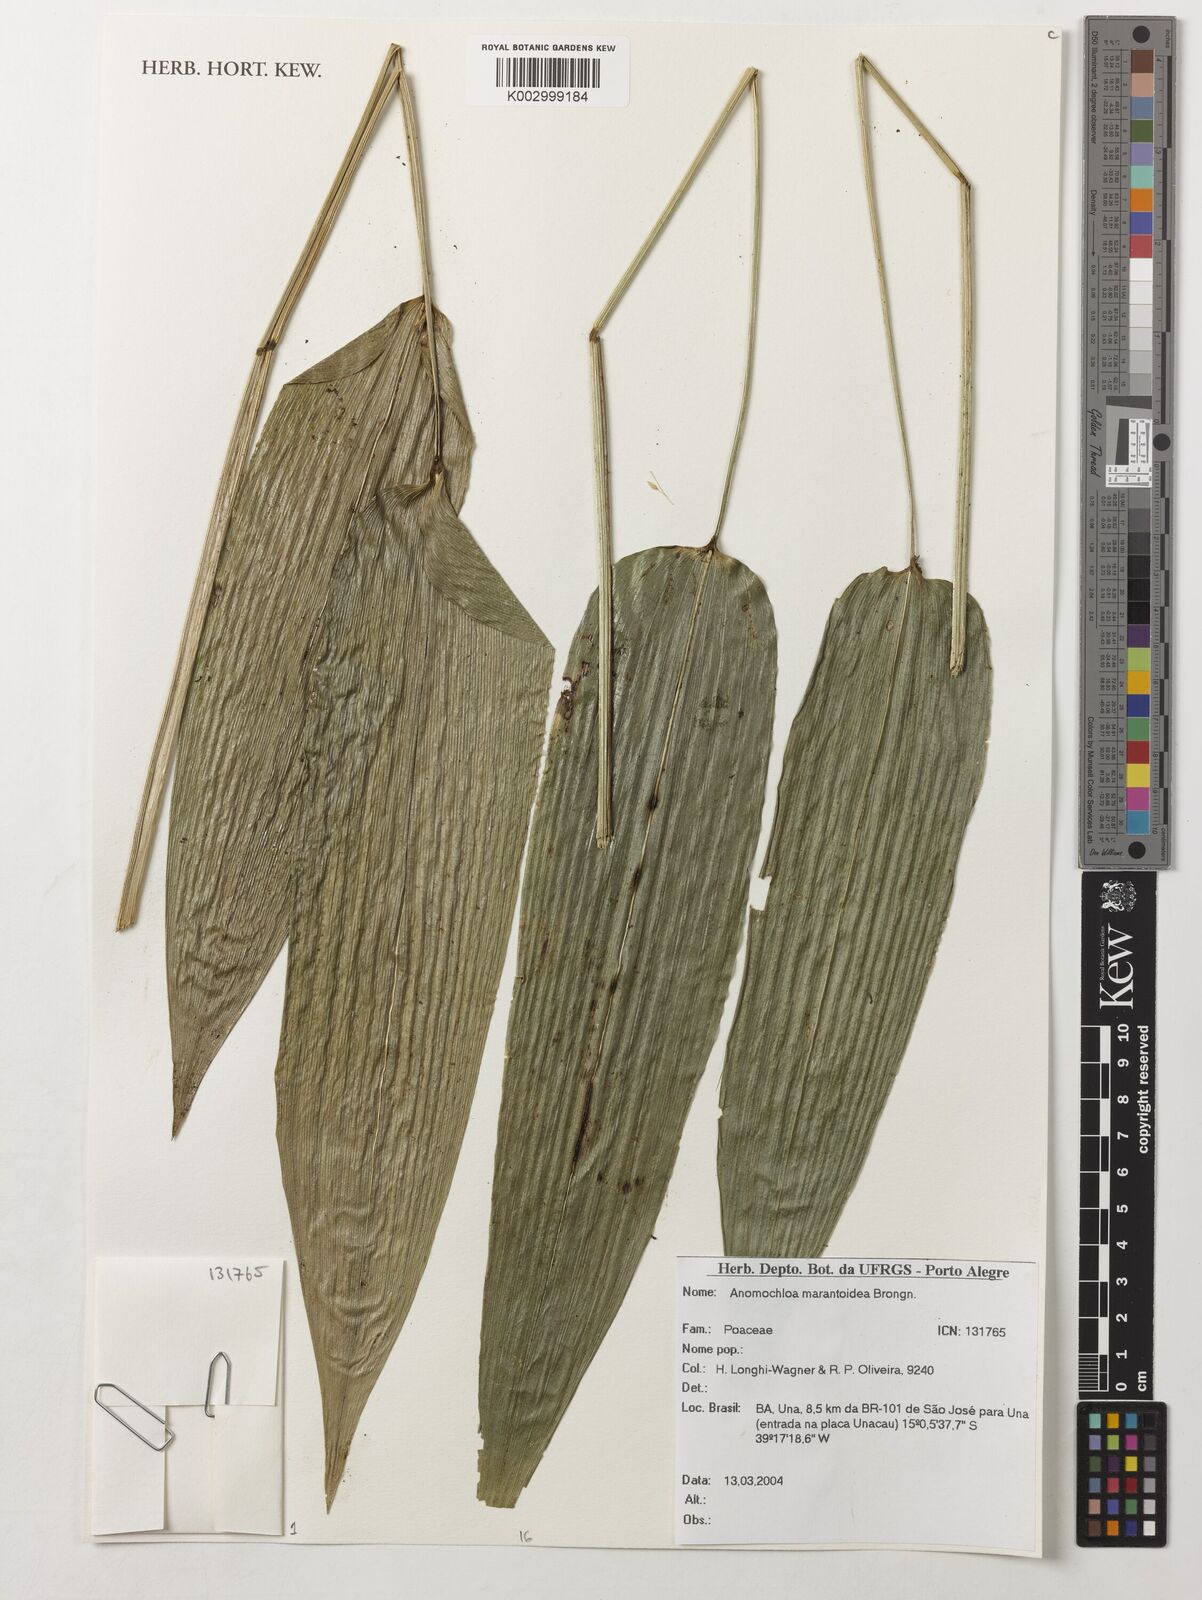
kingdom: Plantae
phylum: Tracheophyta
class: Liliopsida
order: Poales
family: Poaceae
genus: Anomochloa
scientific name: Anomochloa marantoidea
